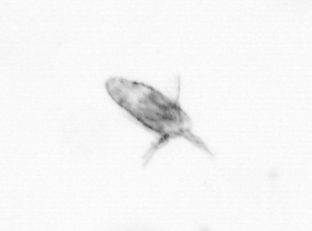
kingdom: Animalia
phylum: Arthropoda
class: Copepoda
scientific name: Copepoda
